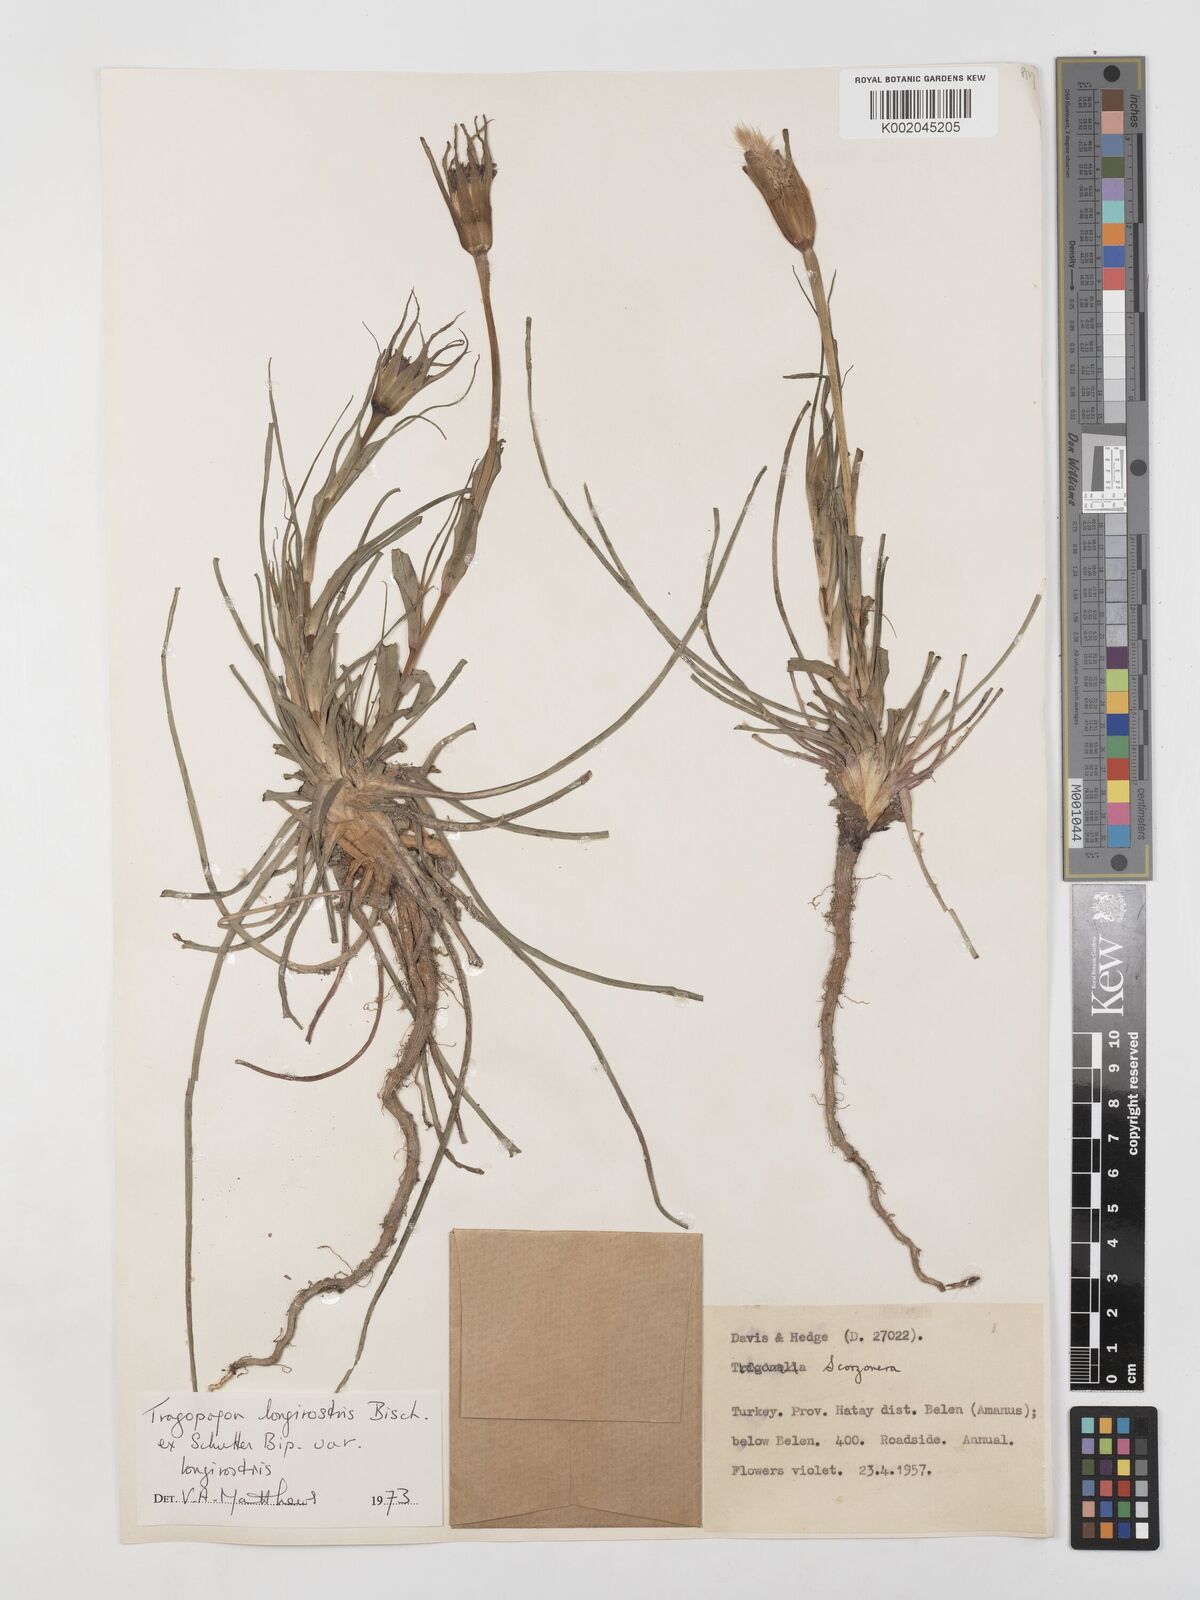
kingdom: Plantae
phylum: Tracheophyta
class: Magnoliopsida
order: Asterales
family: Asteraceae
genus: Tragopogon
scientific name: Tragopogon coelesyriacus
